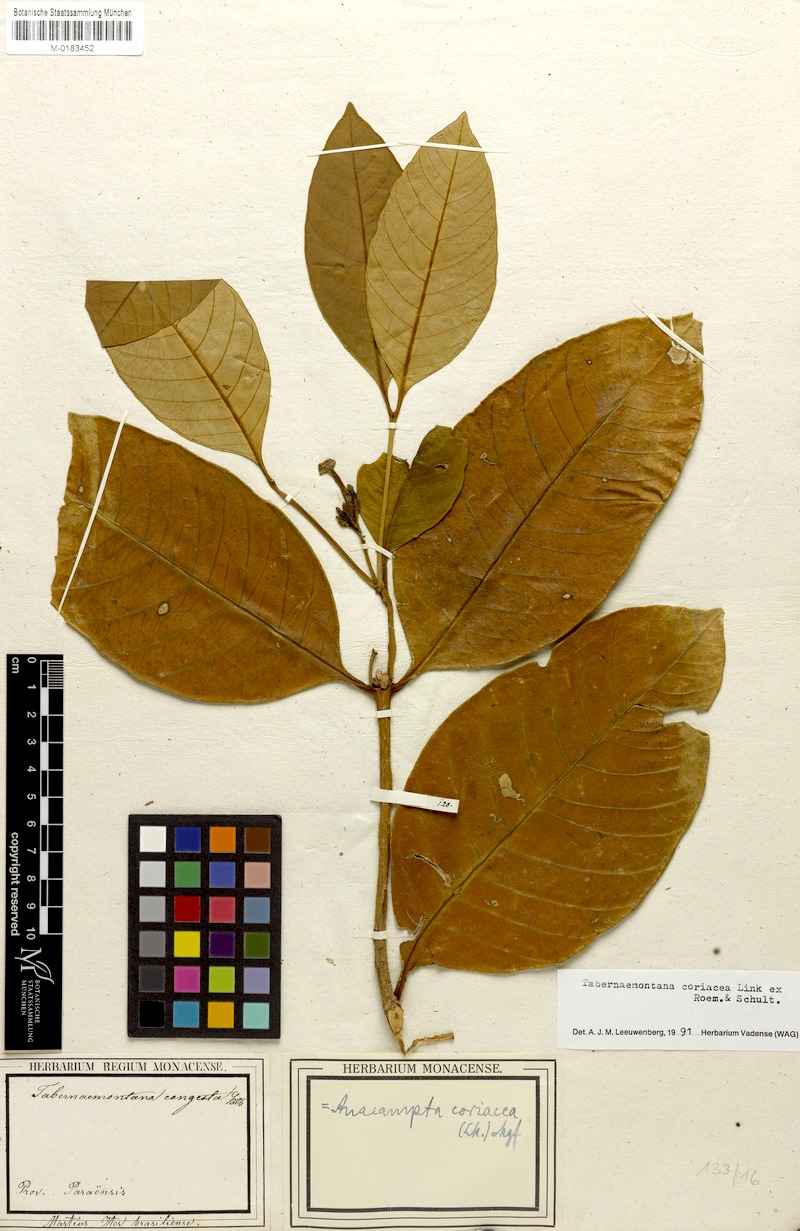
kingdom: Plantae
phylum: Tracheophyta
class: Magnoliopsida
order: Gentianales
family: Apocynaceae
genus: Tabernaemontana
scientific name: Tabernaemontana coriacea
